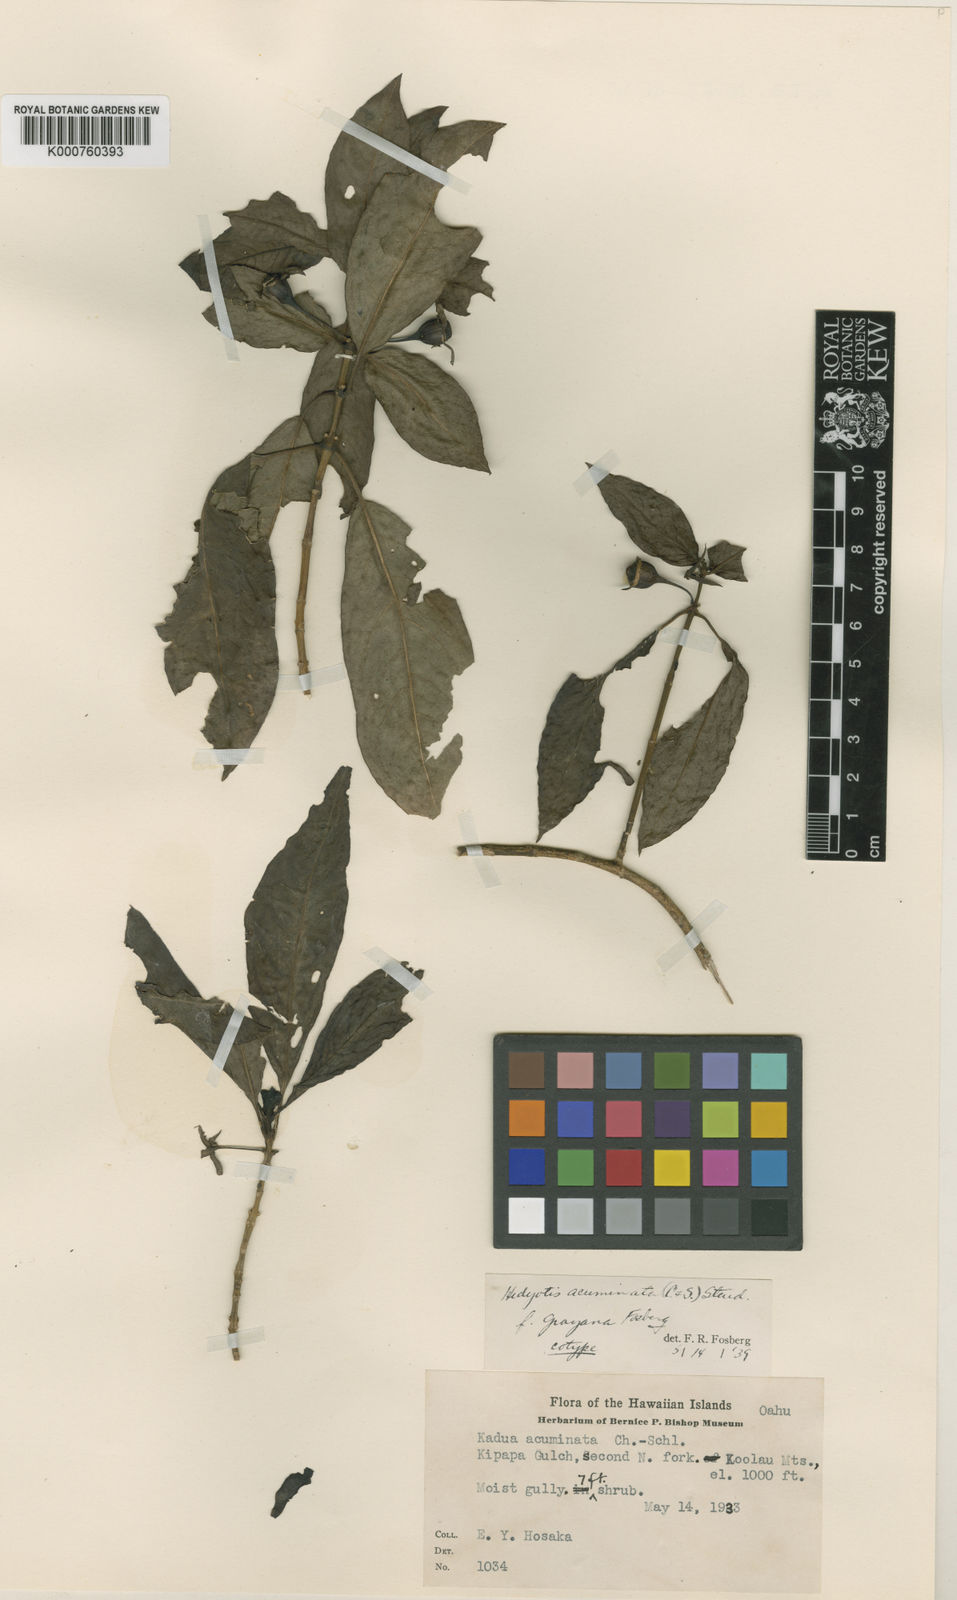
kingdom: Plantae
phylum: Tracheophyta
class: Magnoliopsida
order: Gentianales
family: Rubiaceae
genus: Kadua
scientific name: Kadua acuminata
